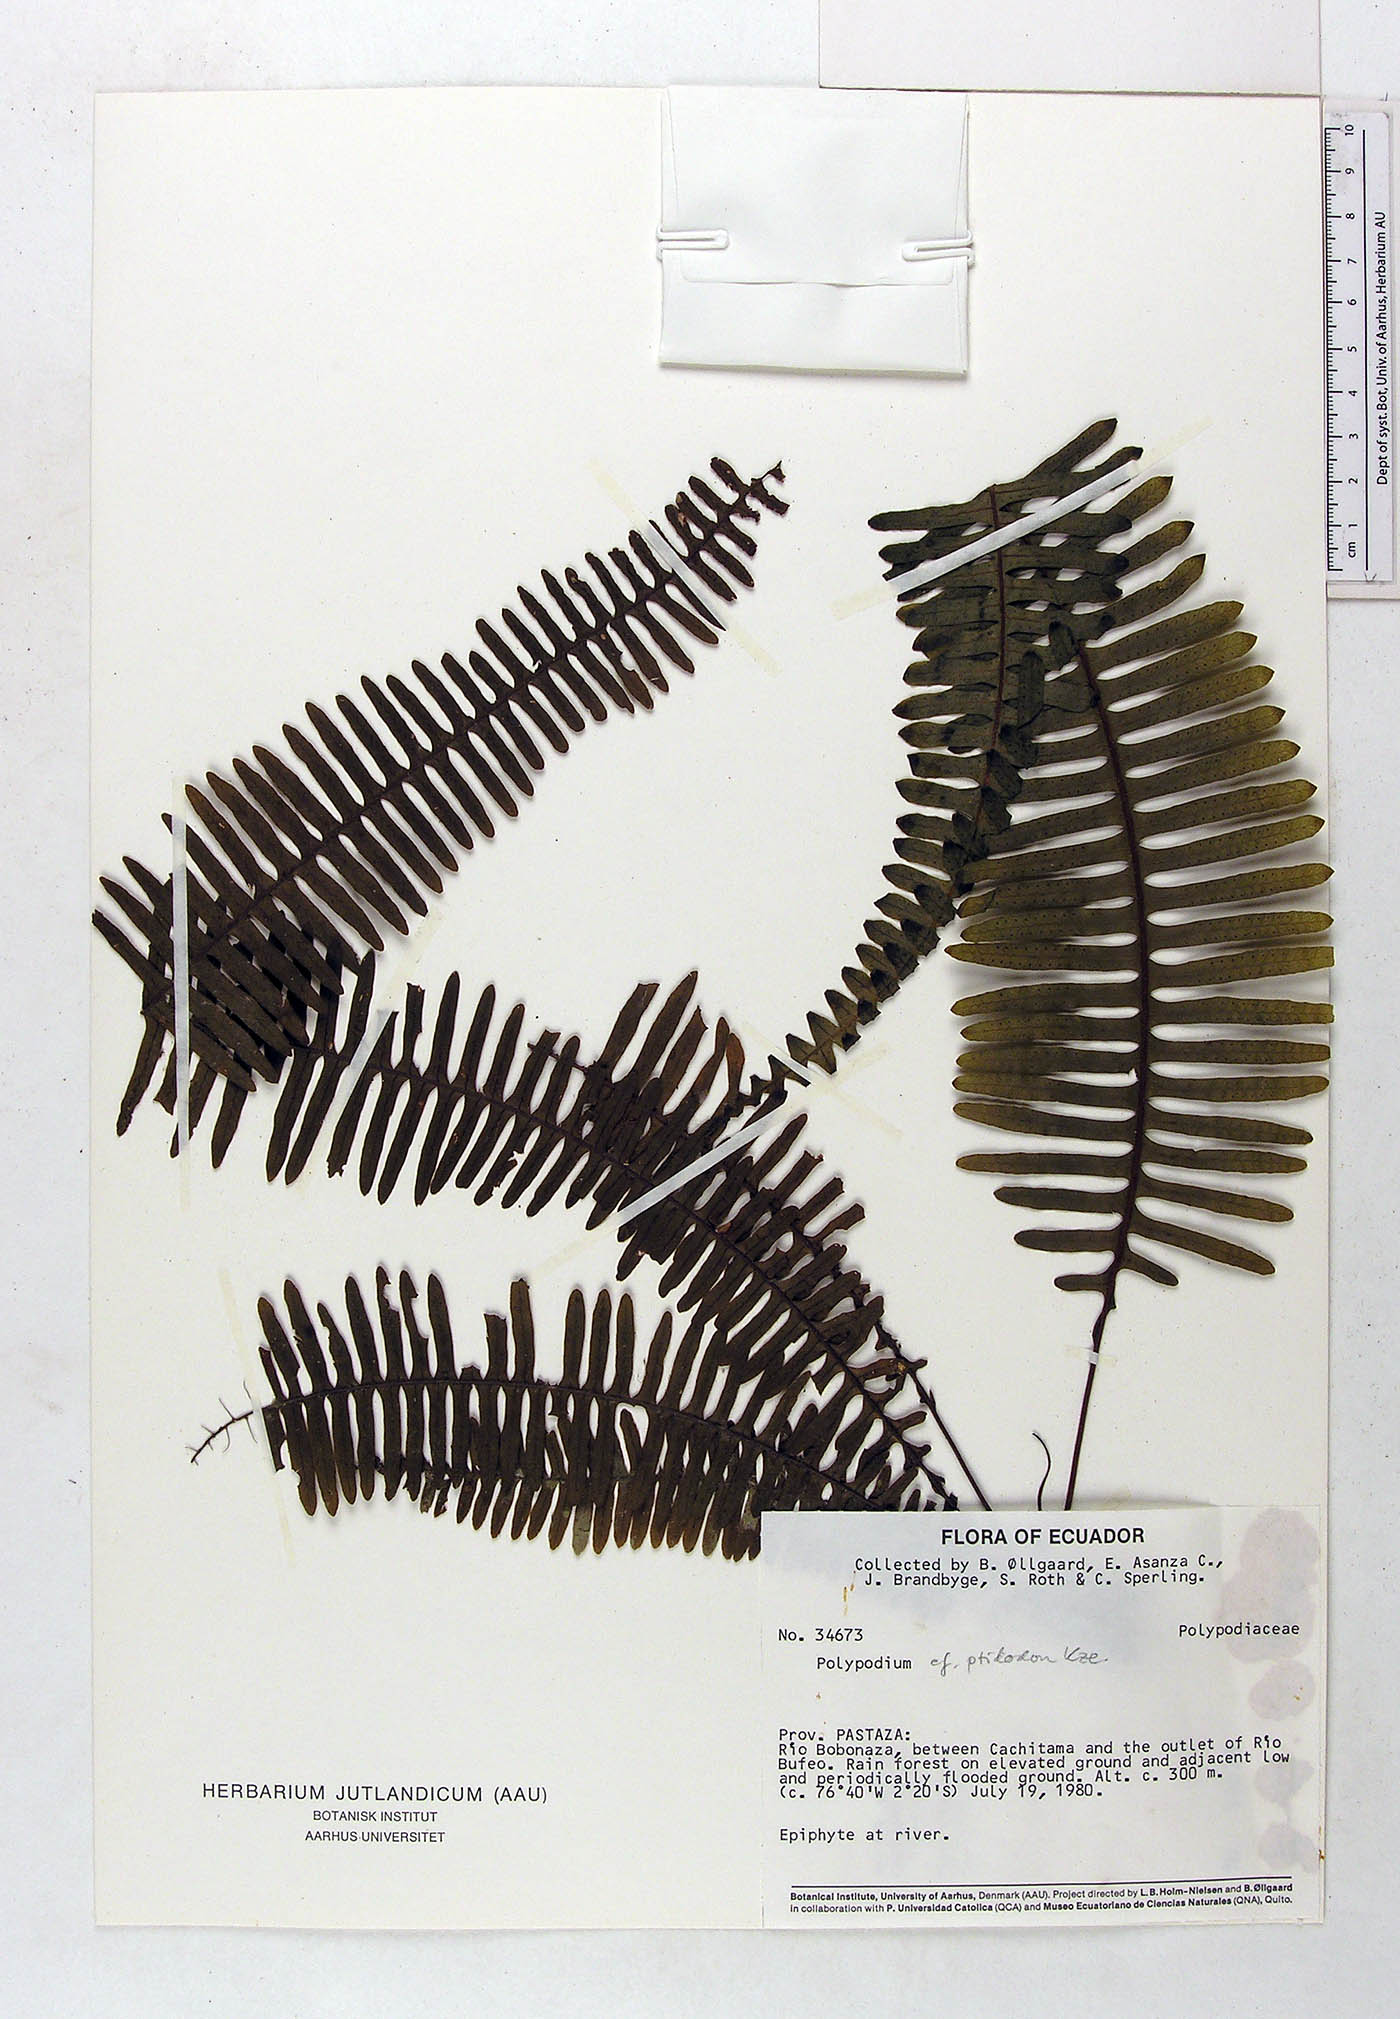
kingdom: Plantae
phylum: Tracheophyta
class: Polypodiopsida
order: Polypodiales
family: Polypodiaceae
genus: Pecluma
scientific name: Pecluma ptilotos
